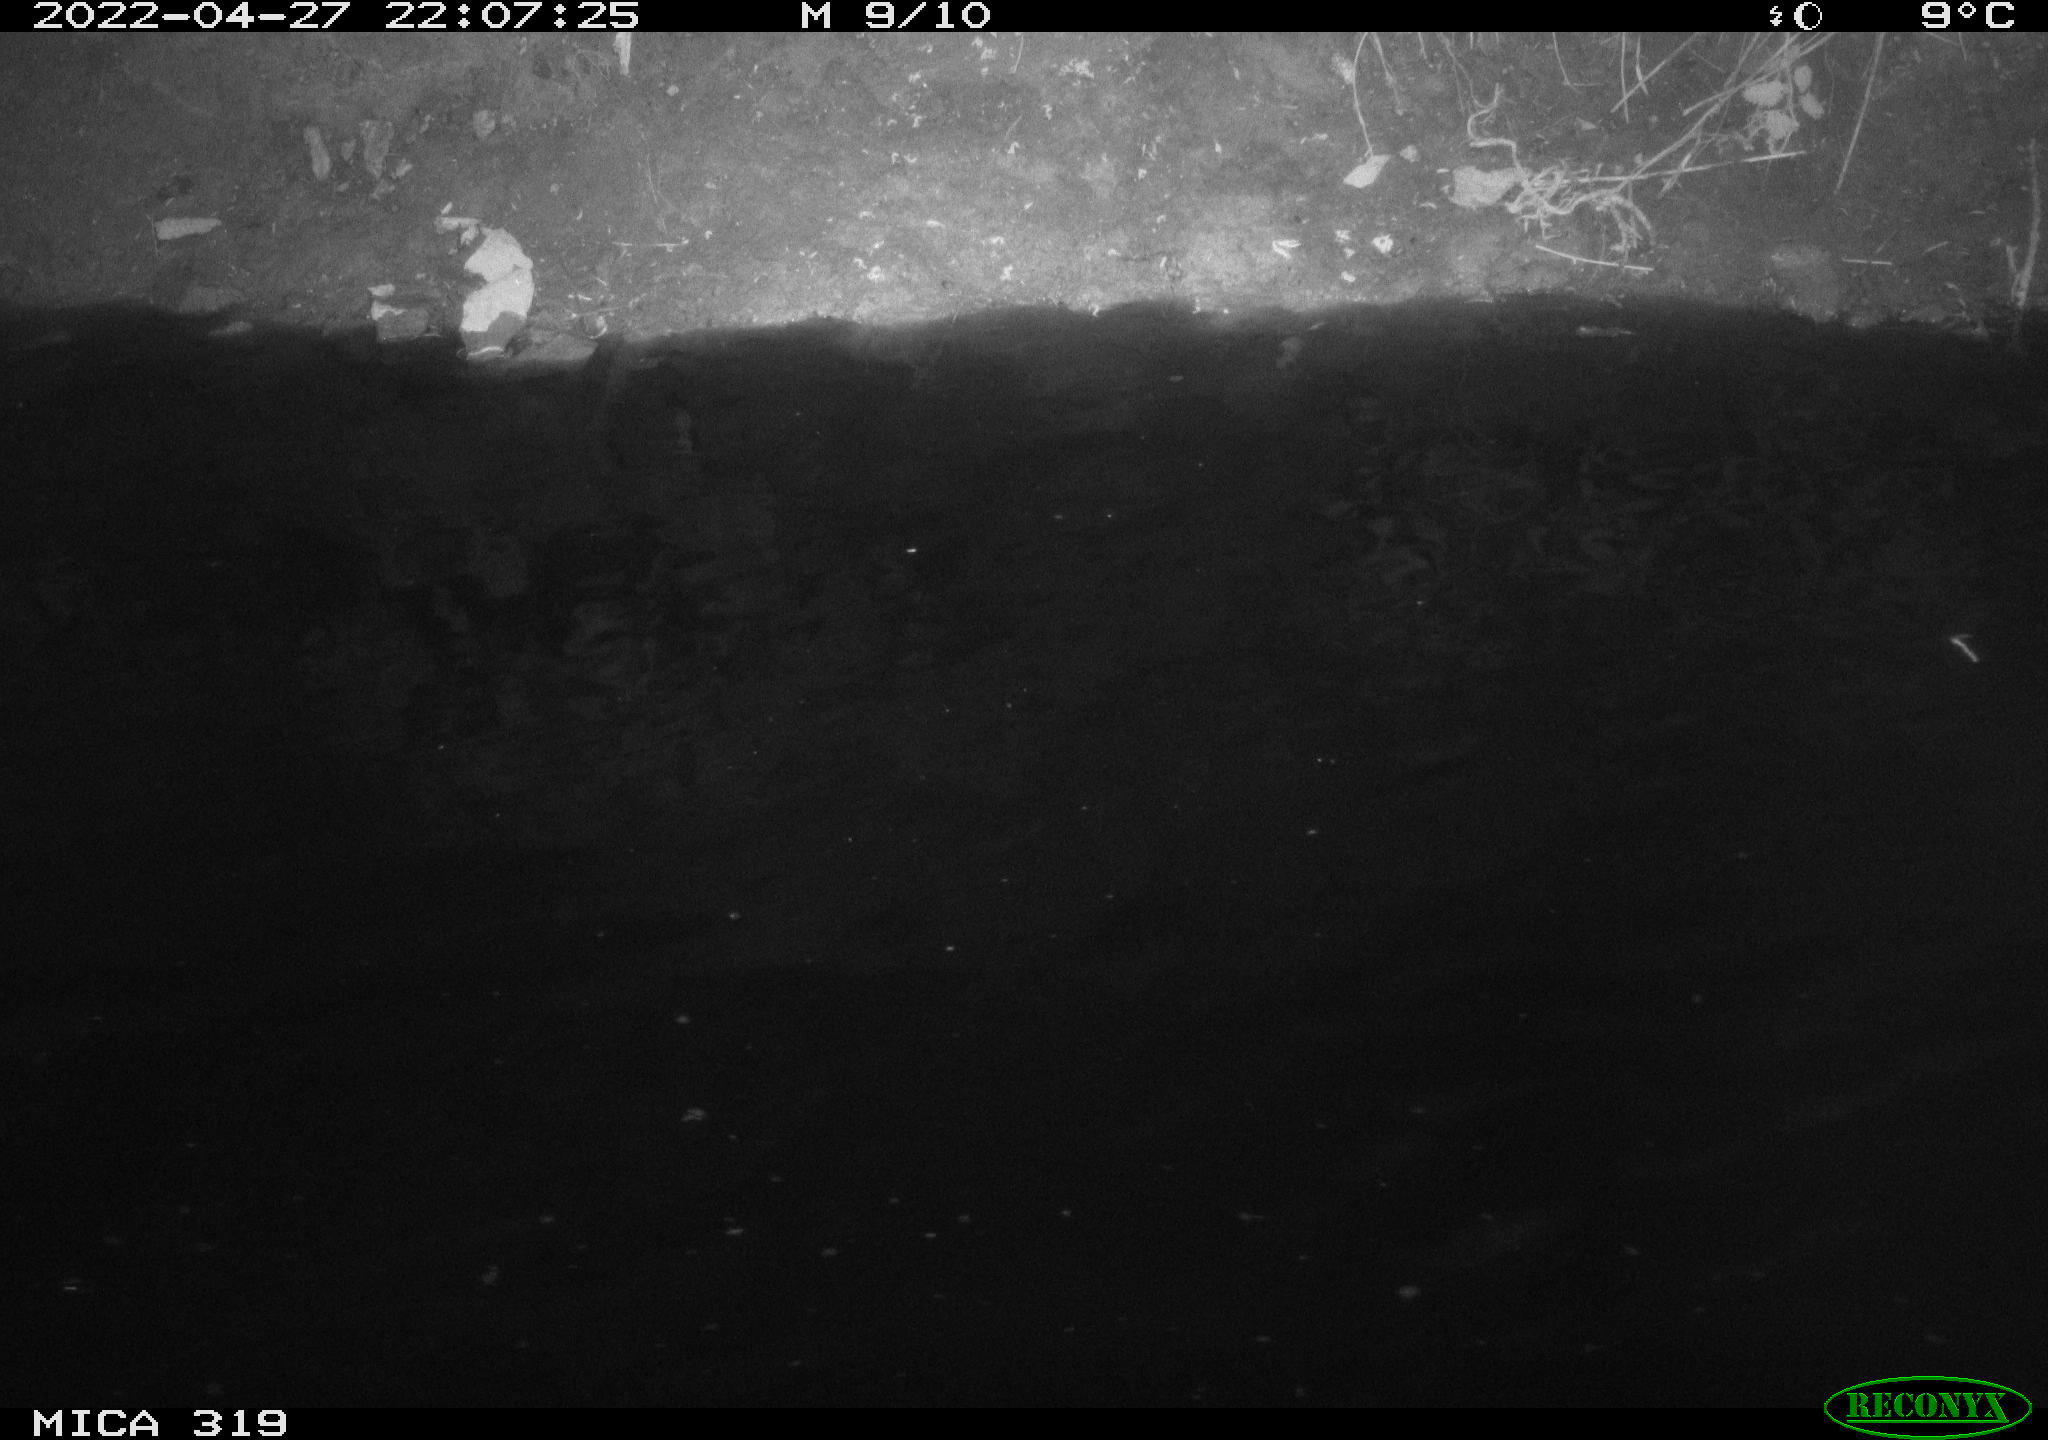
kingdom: Animalia
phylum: Chordata
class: Aves
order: Anseriformes
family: Anatidae
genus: Anas
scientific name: Anas platyrhynchos
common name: Mallard
